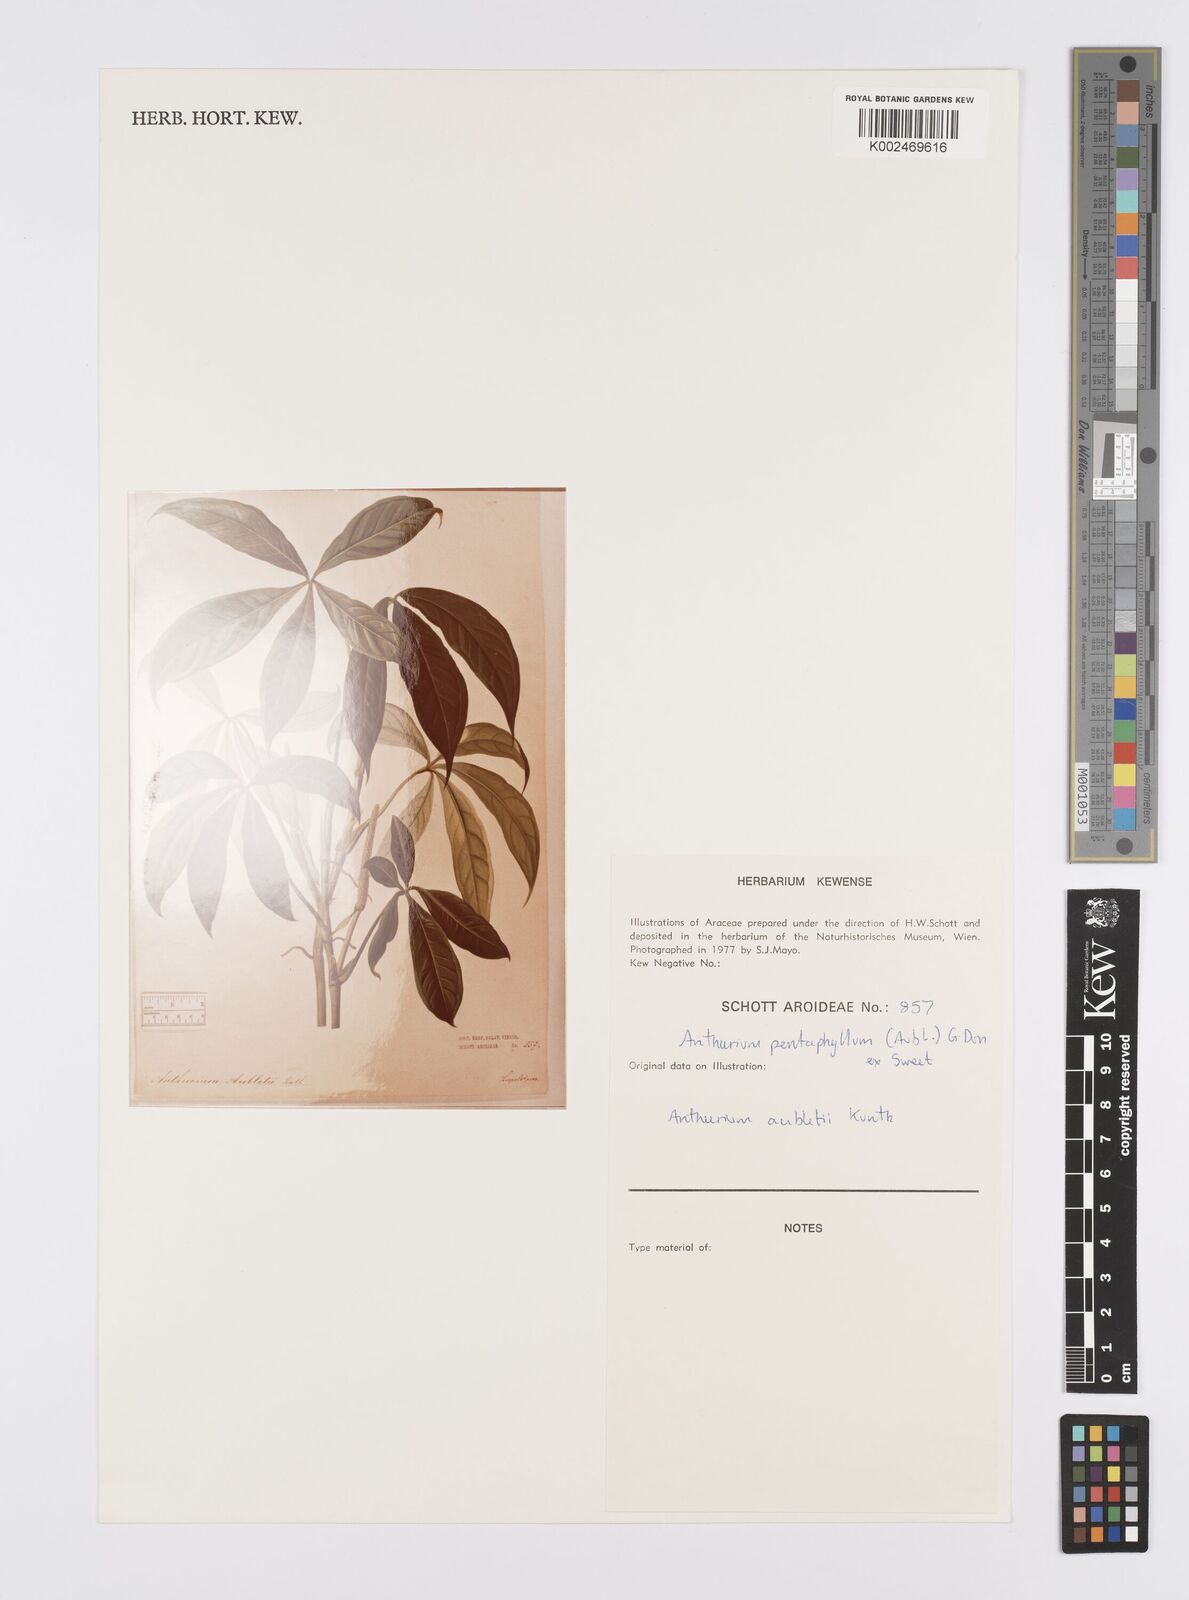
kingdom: Plantae
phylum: Tracheophyta
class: Liliopsida
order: Alismatales
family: Araceae
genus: Anthurium
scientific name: Anthurium pentaphyllum
